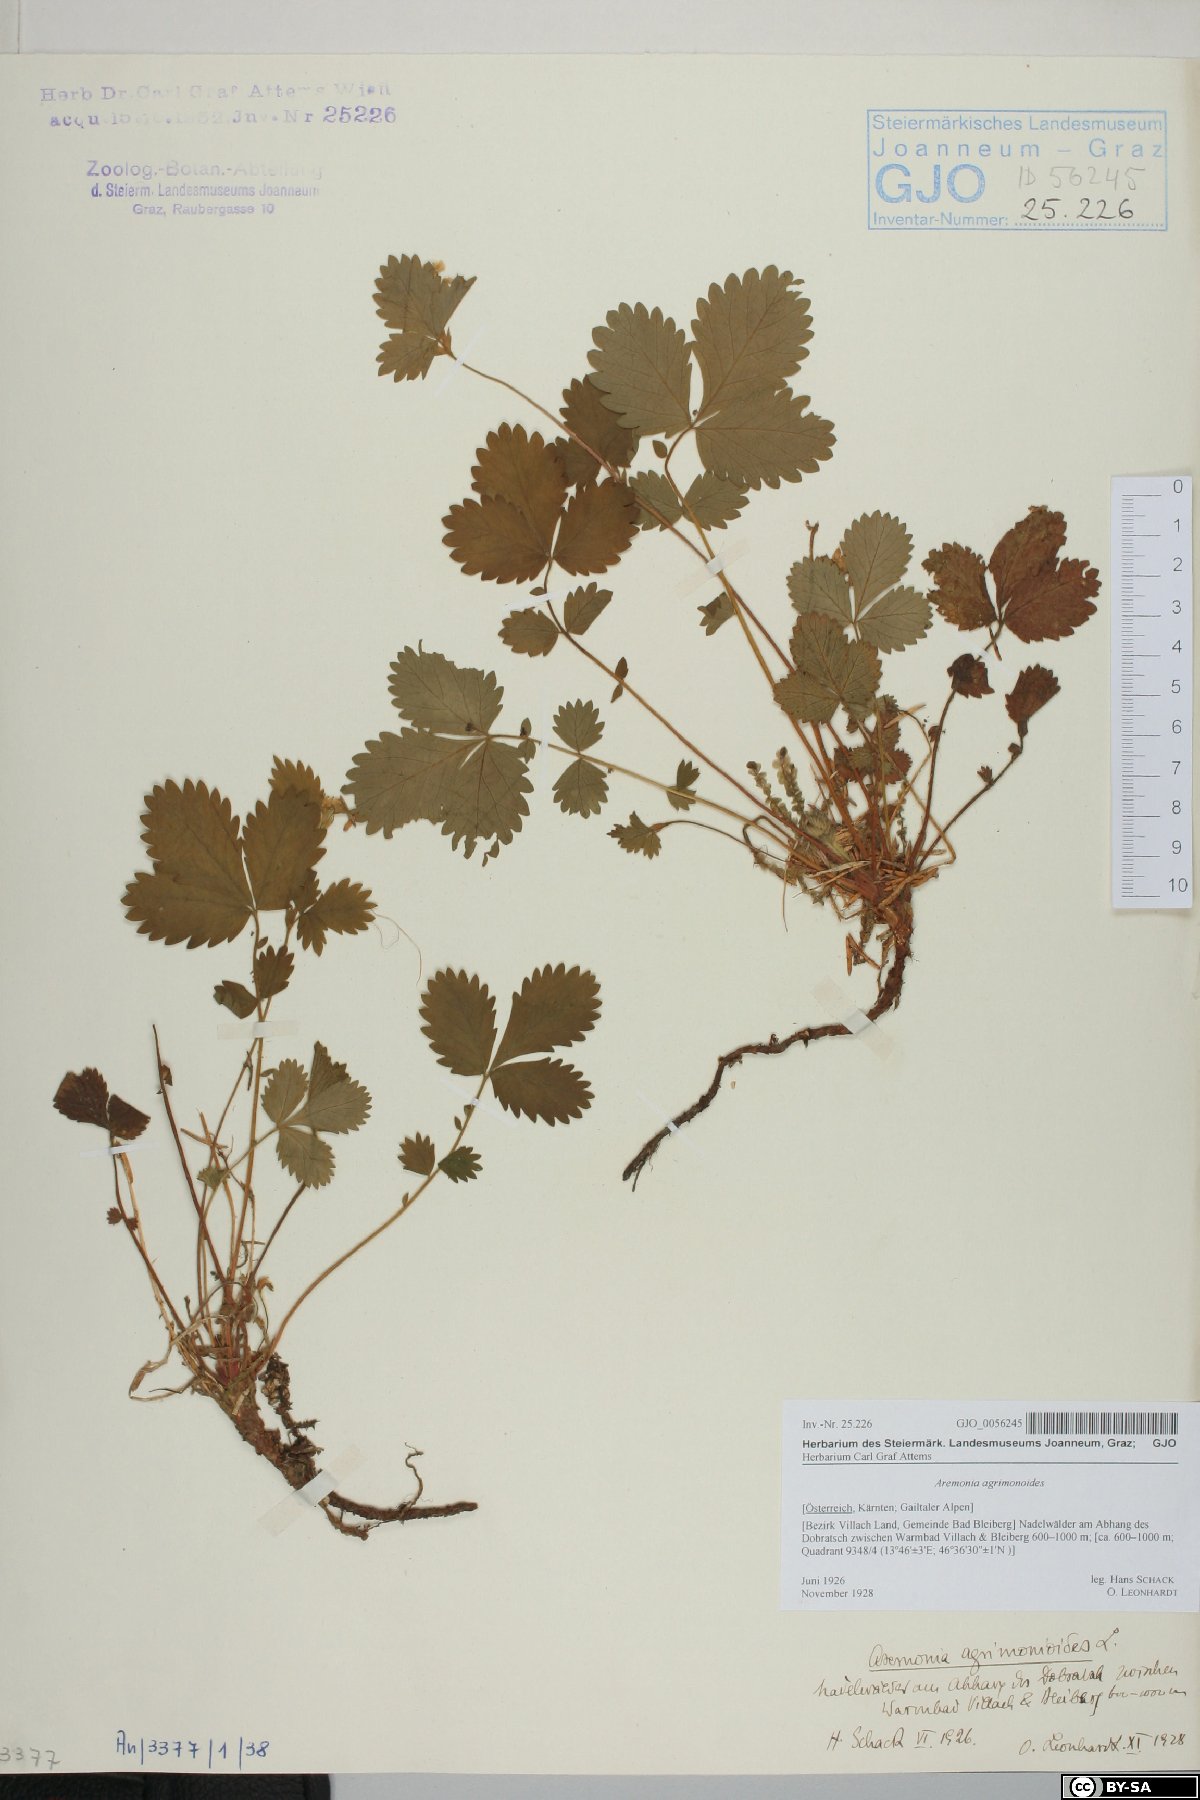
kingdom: Plantae
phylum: Tracheophyta
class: Magnoliopsida
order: Rosales
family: Rosaceae
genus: Aremonia
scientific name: Aremonia agrimonoides
